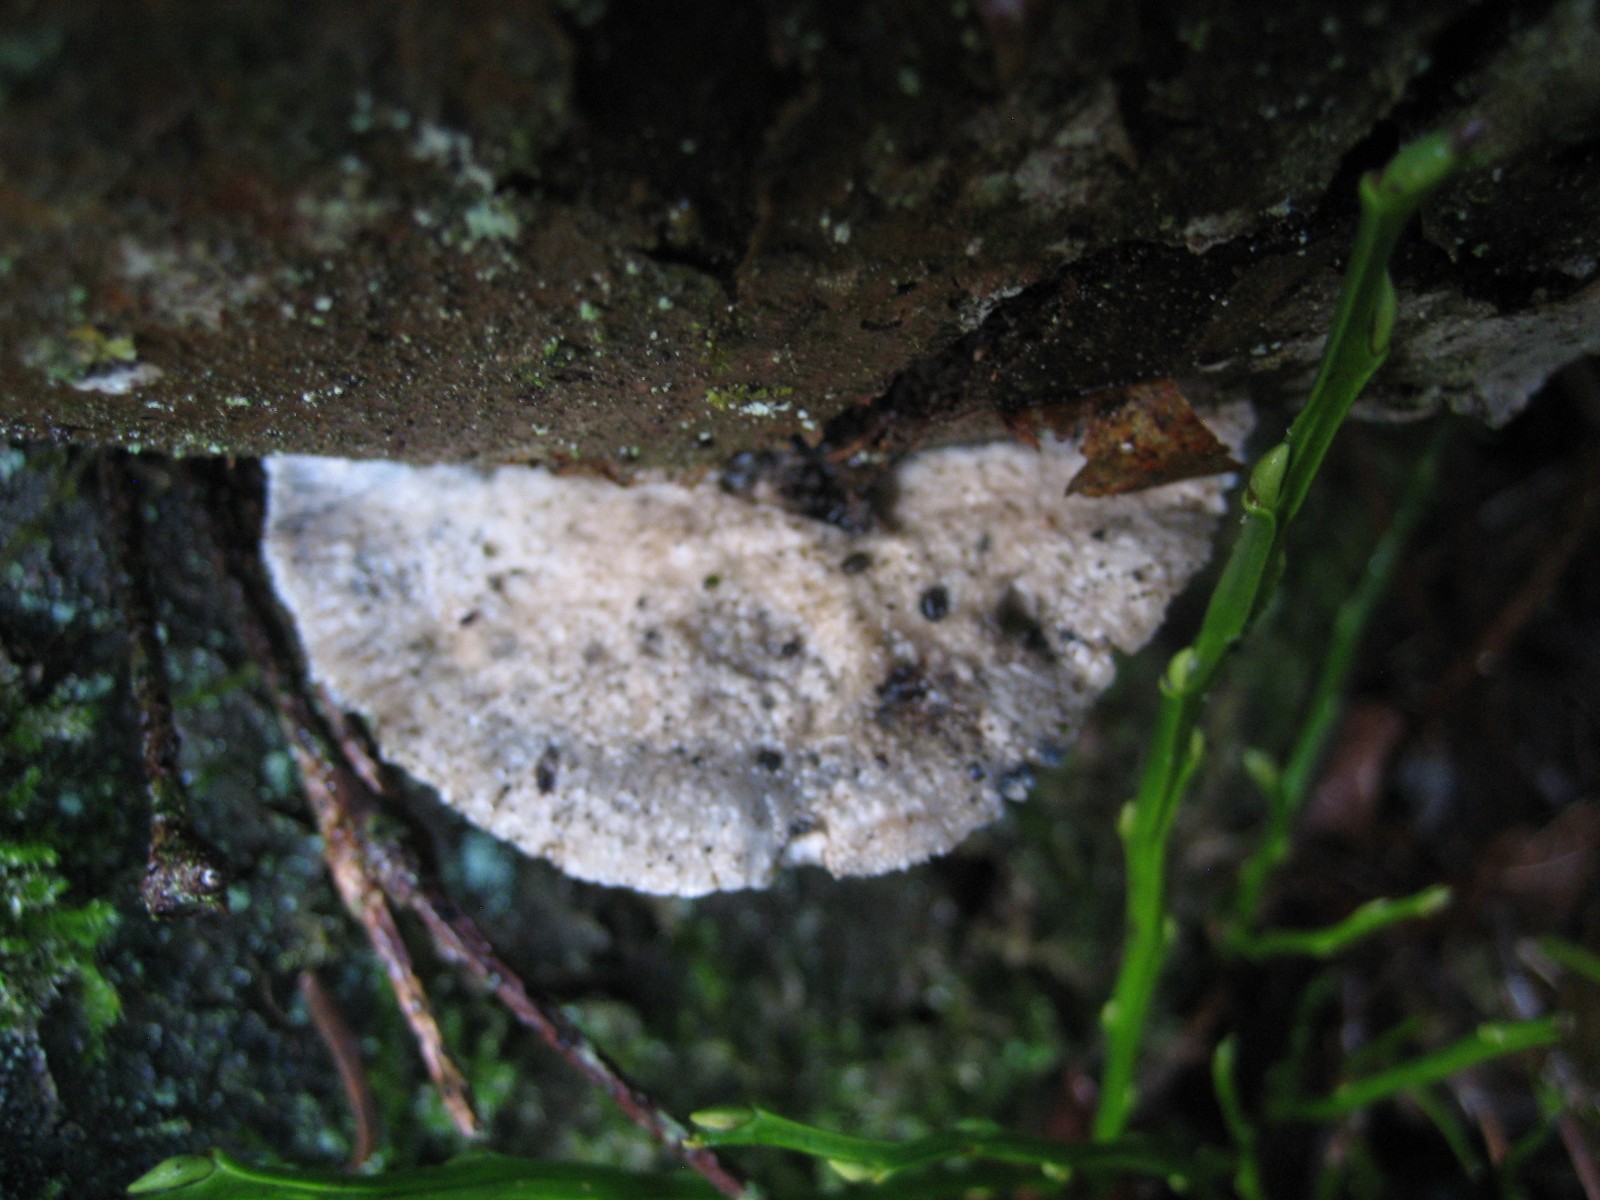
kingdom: Fungi
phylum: Basidiomycota
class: Agaricomycetes
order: Polyporales
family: Polyporaceae
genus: Cyanosporus
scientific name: Cyanosporus caesius
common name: blålig kødporesvamp
